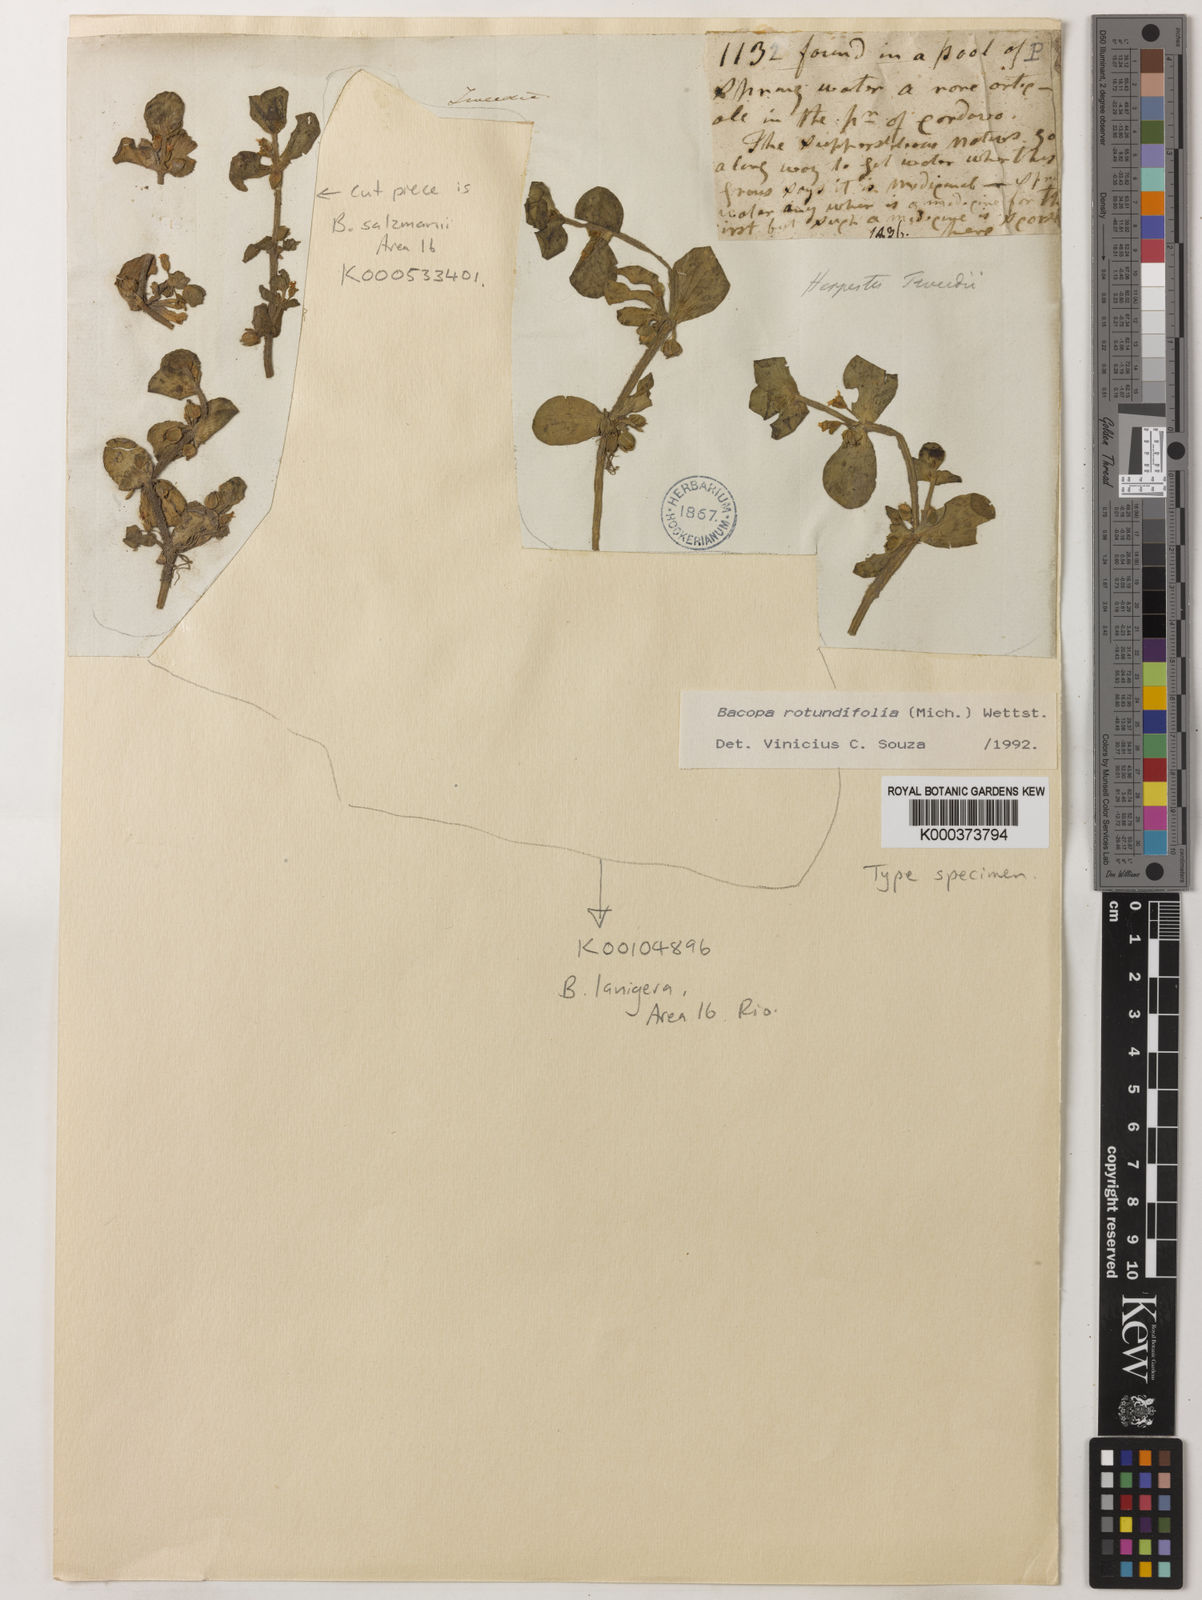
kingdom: Plantae
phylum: Tracheophyta
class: Magnoliopsida
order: Lamiales
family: Plantaginaceae
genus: Bacopa
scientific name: Bacopa rotundifolia
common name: Disc water hyssop
